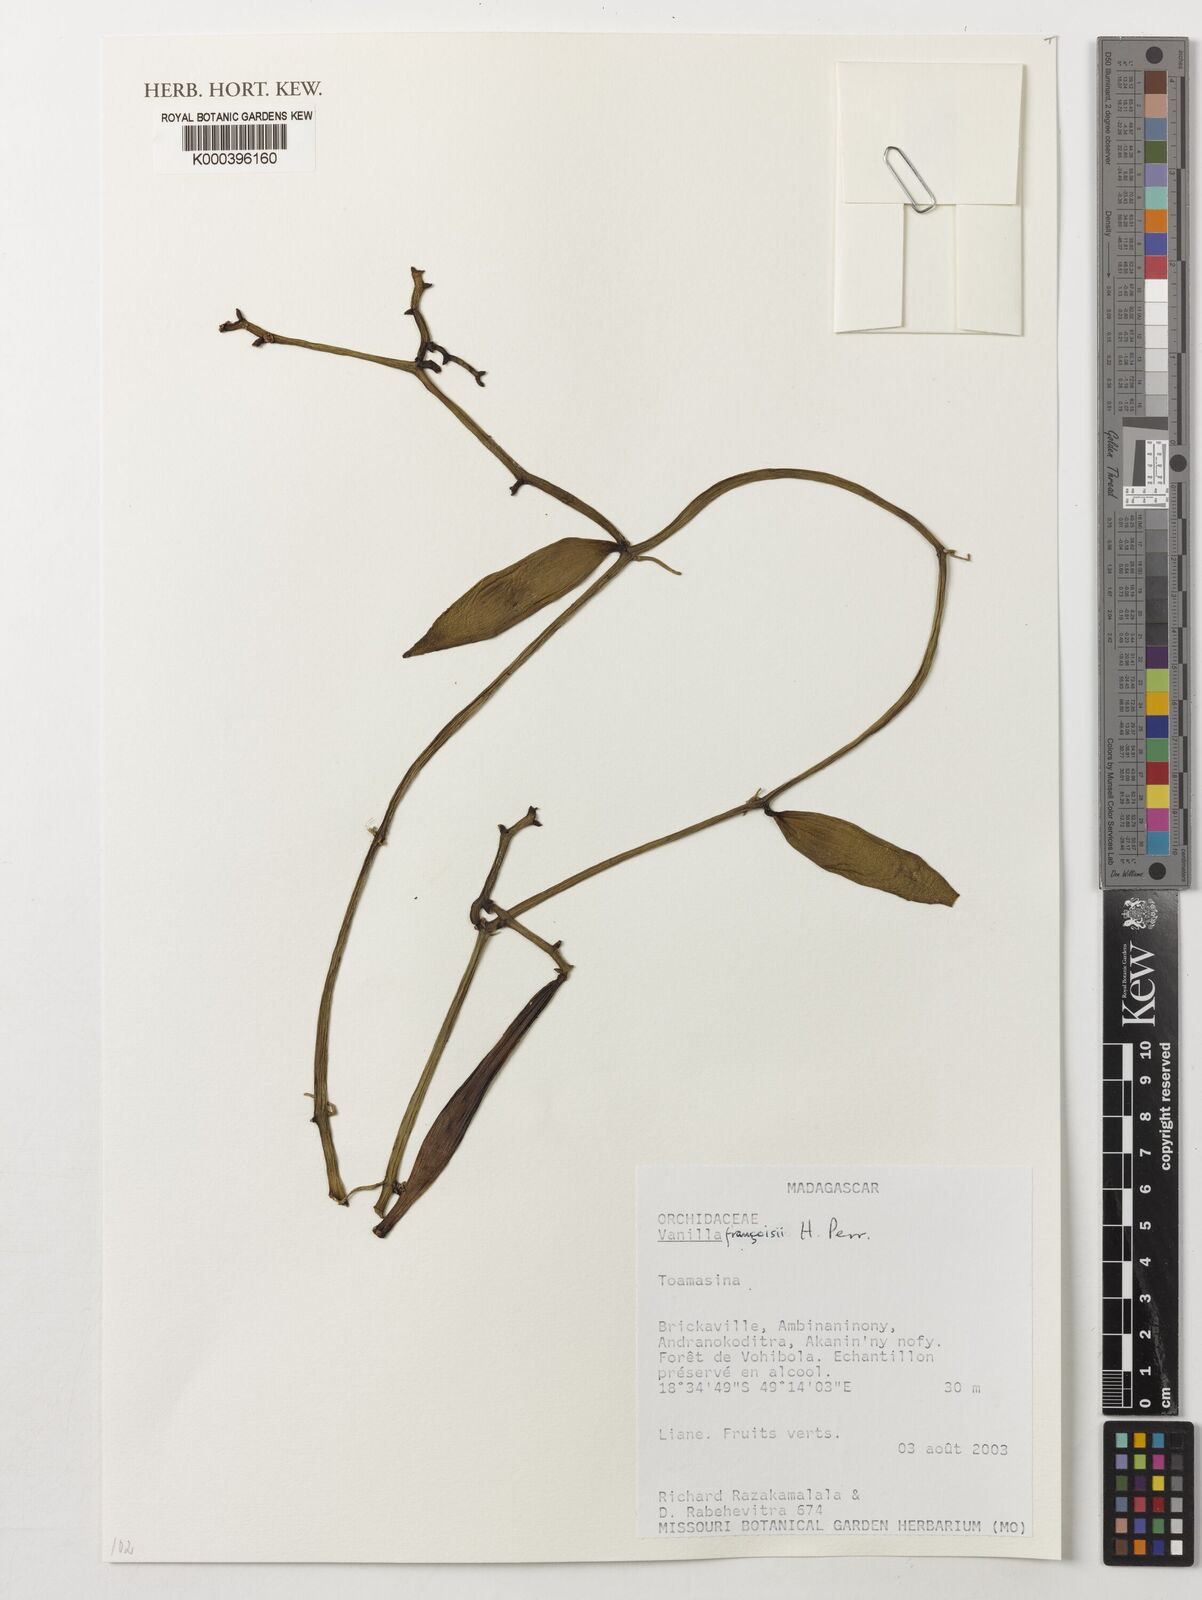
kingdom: Plantae
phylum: Tracheophyta
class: Liliopsida
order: Asparagales
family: Orchidaceae
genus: Vanilla
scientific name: Vanilla francoisii
